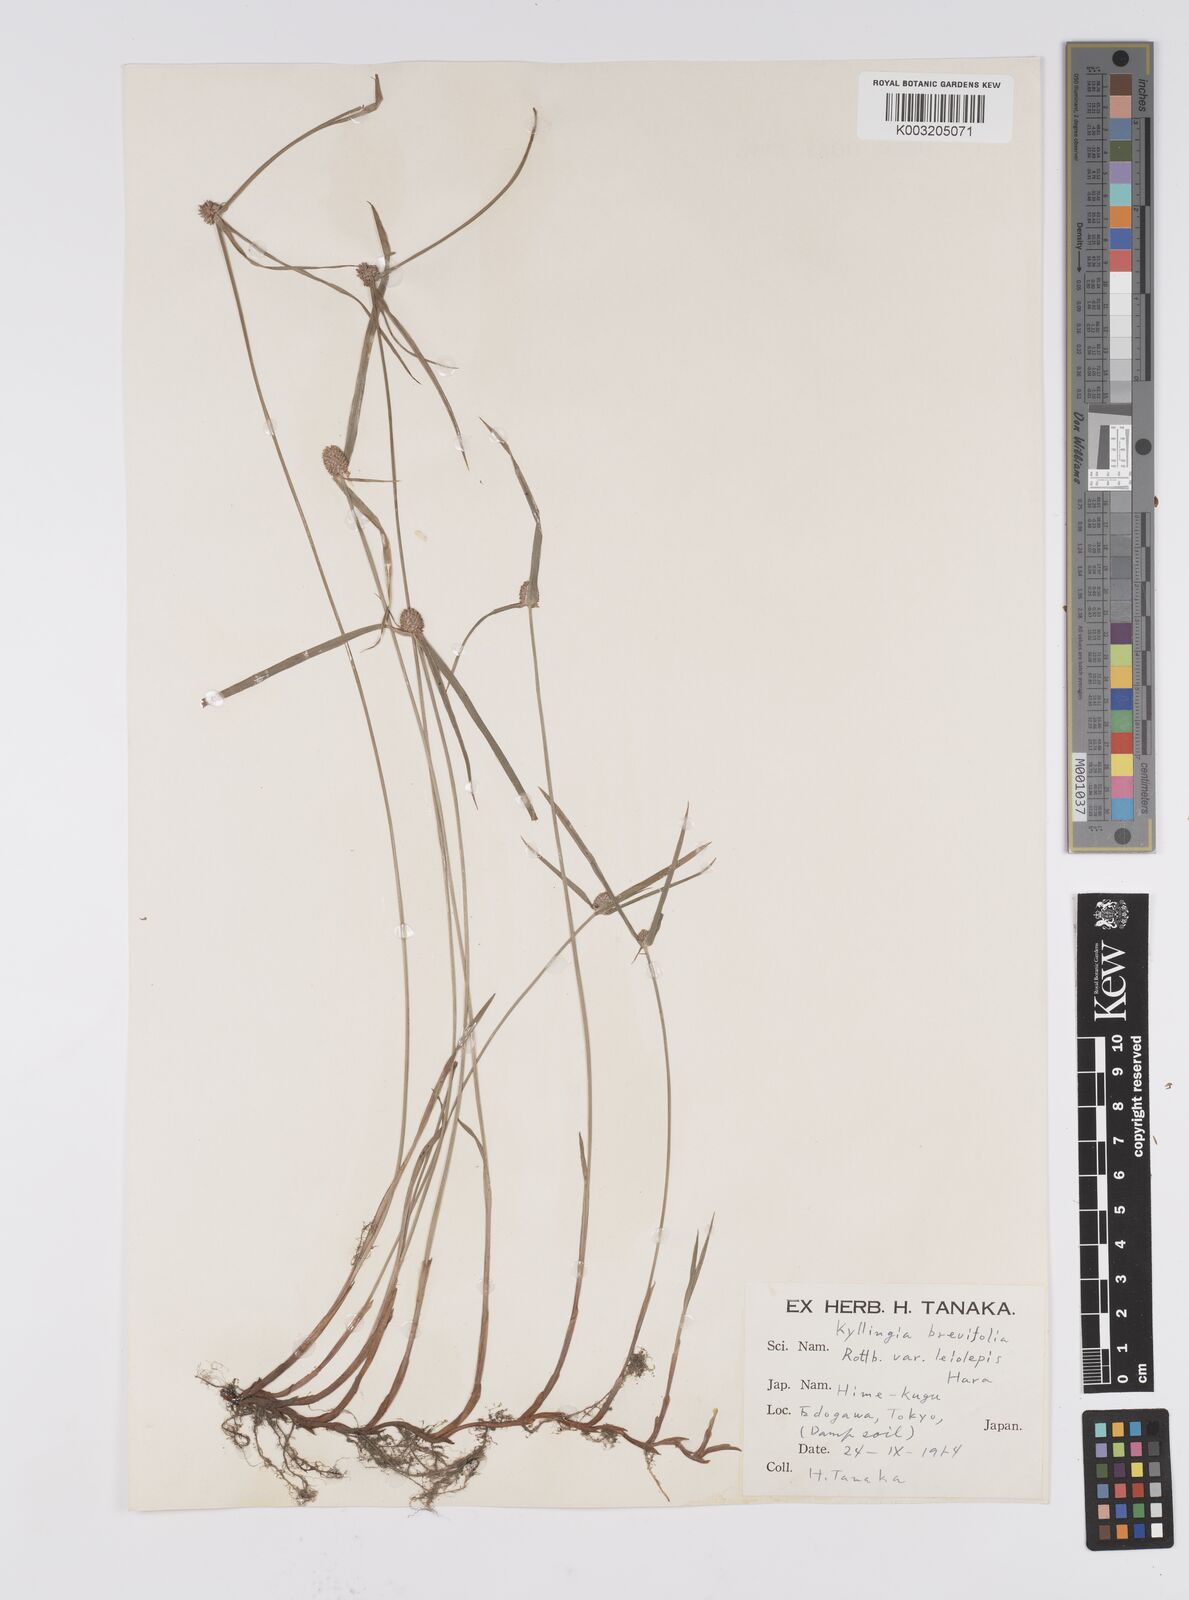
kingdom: Plantae
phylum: Tracheophyta
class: Liliopsida
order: Poales
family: Cyperaceae
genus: Cyperus
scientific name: Cyperus brevifolius
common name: Globe kyllinga
